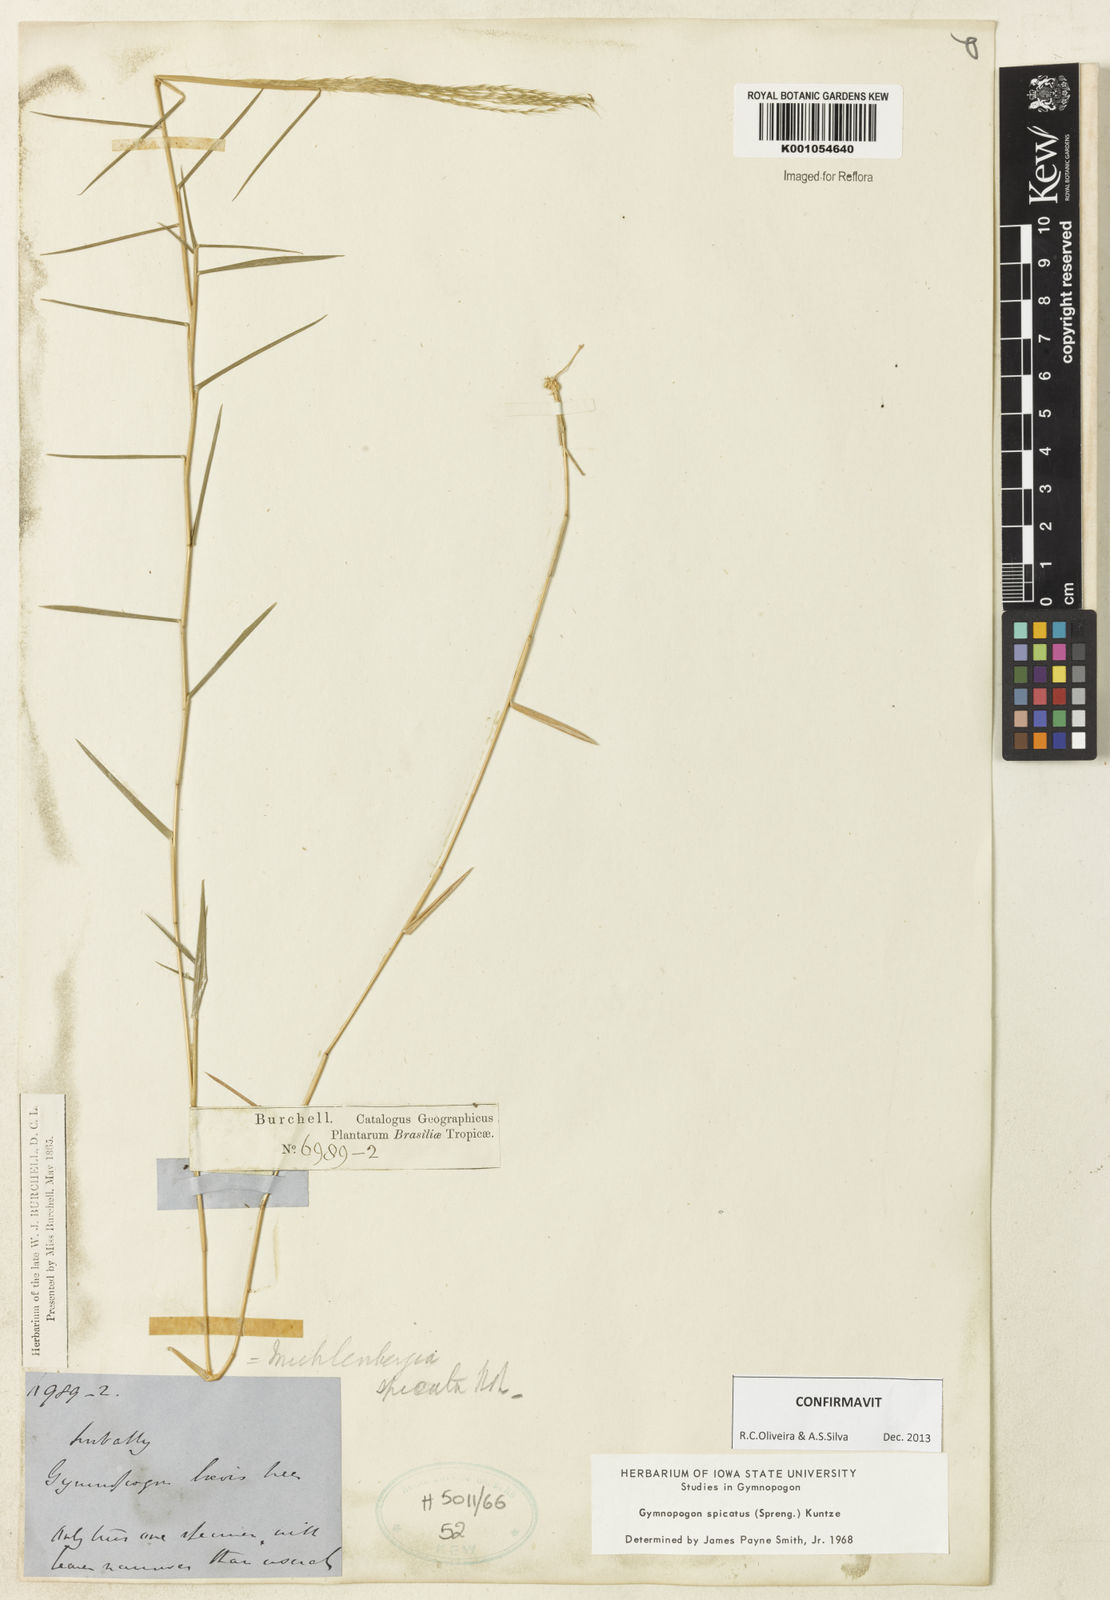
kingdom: Plantae
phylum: Tracheophyta
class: Liliopsida
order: Poales
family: Poaceae
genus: Gymnopogon
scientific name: Gymnopogon spicatus
